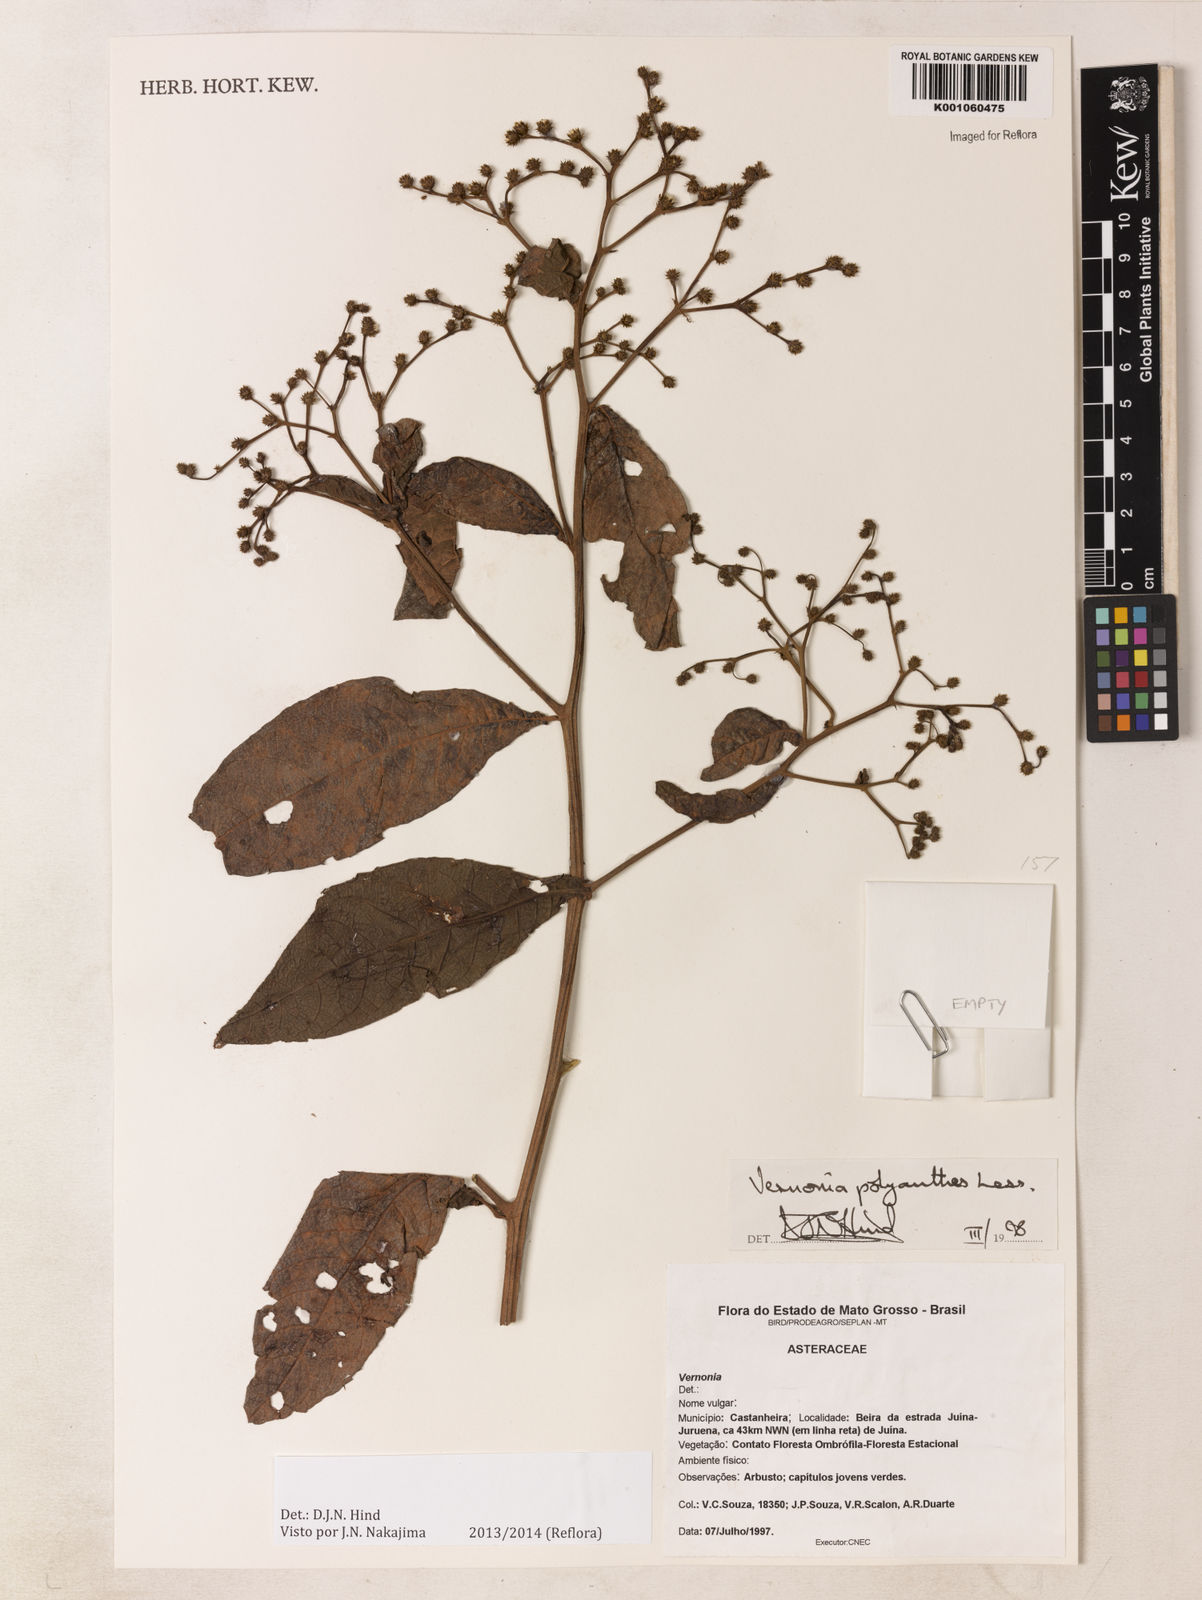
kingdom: Plantae
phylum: Tracheophyta
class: Magnoliopsida
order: Asterales
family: Asteraceae
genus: Vernonanthura
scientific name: Vernonanthura cymosa
